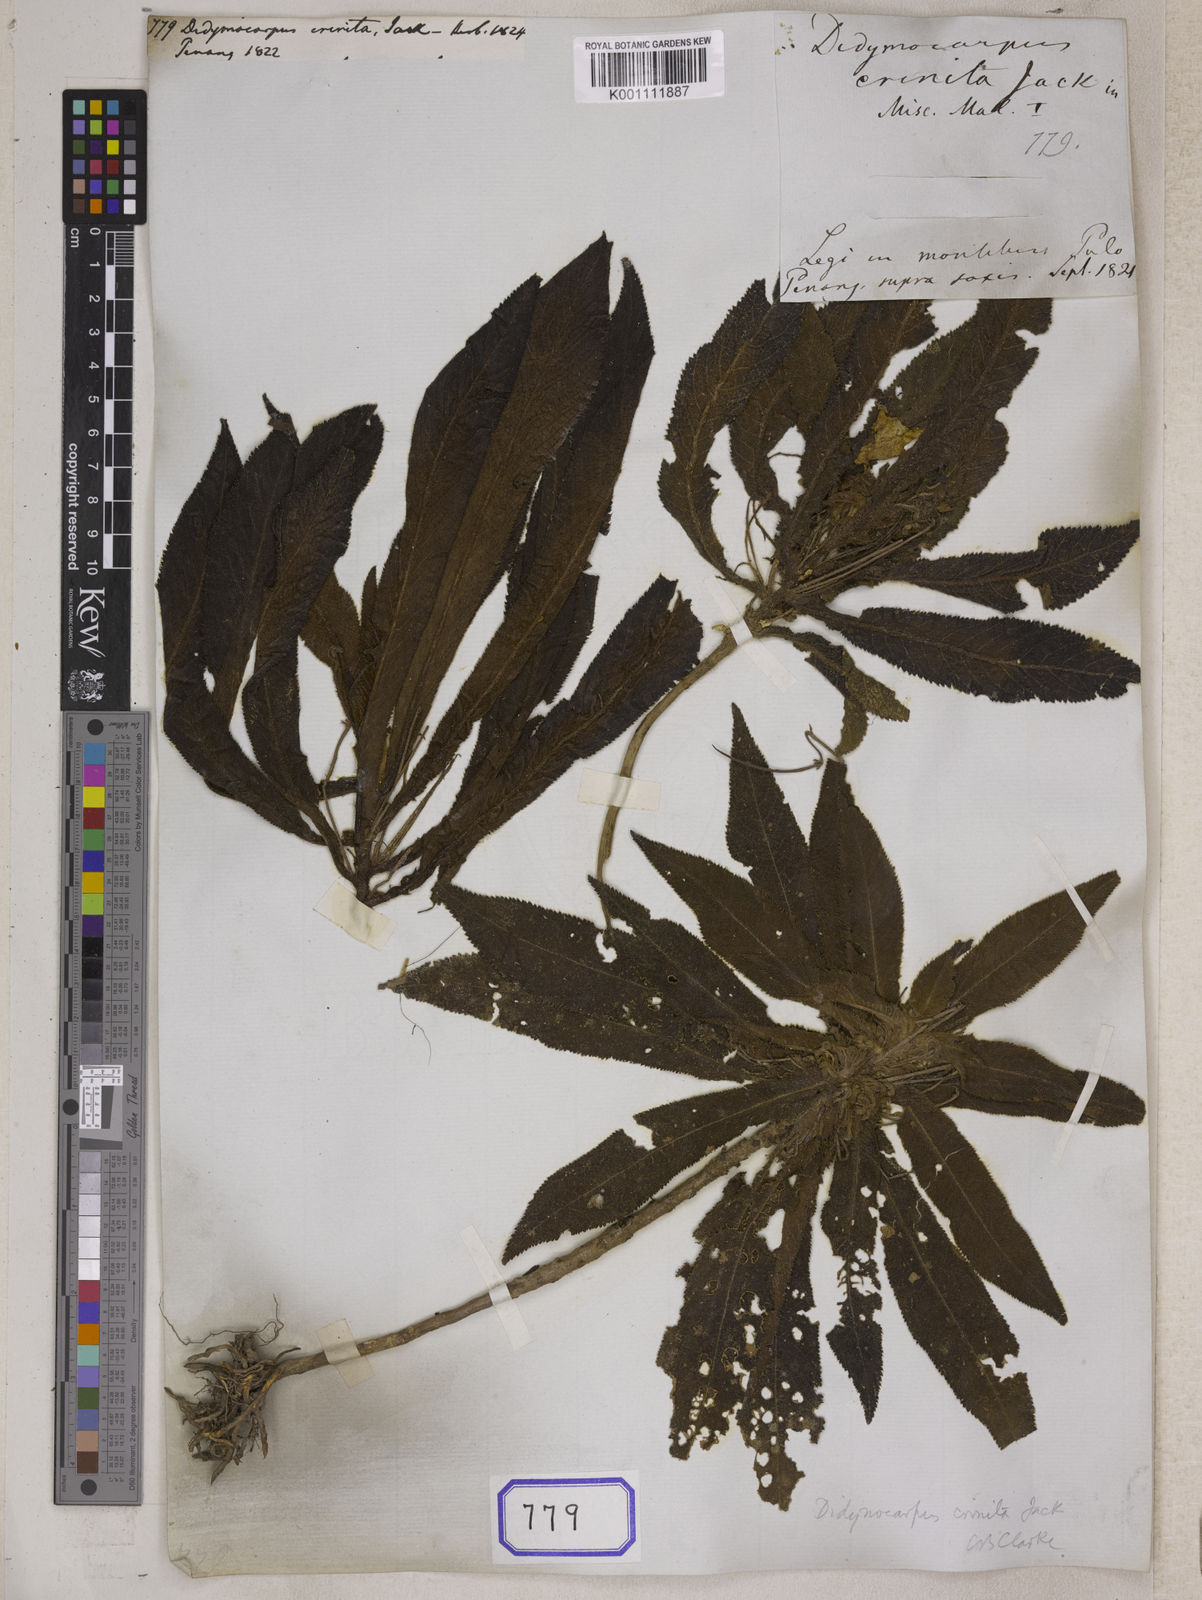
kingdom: Plantae
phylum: Tracheophyta
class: Magnoliopsida
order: Lamiales
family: Gesneriaceae
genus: Codonoboea
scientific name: Codonoboea crinita
